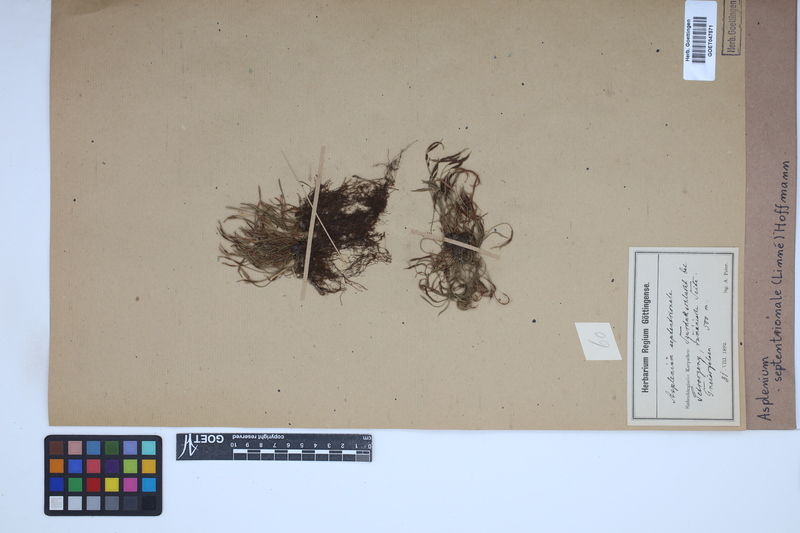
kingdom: Plantae
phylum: Tracheophyta
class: Polypodiopsida
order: Polypodiales
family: Aspleniaceae
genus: Asplenium
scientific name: Asplenium septentrionale
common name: Forked spleenwort
